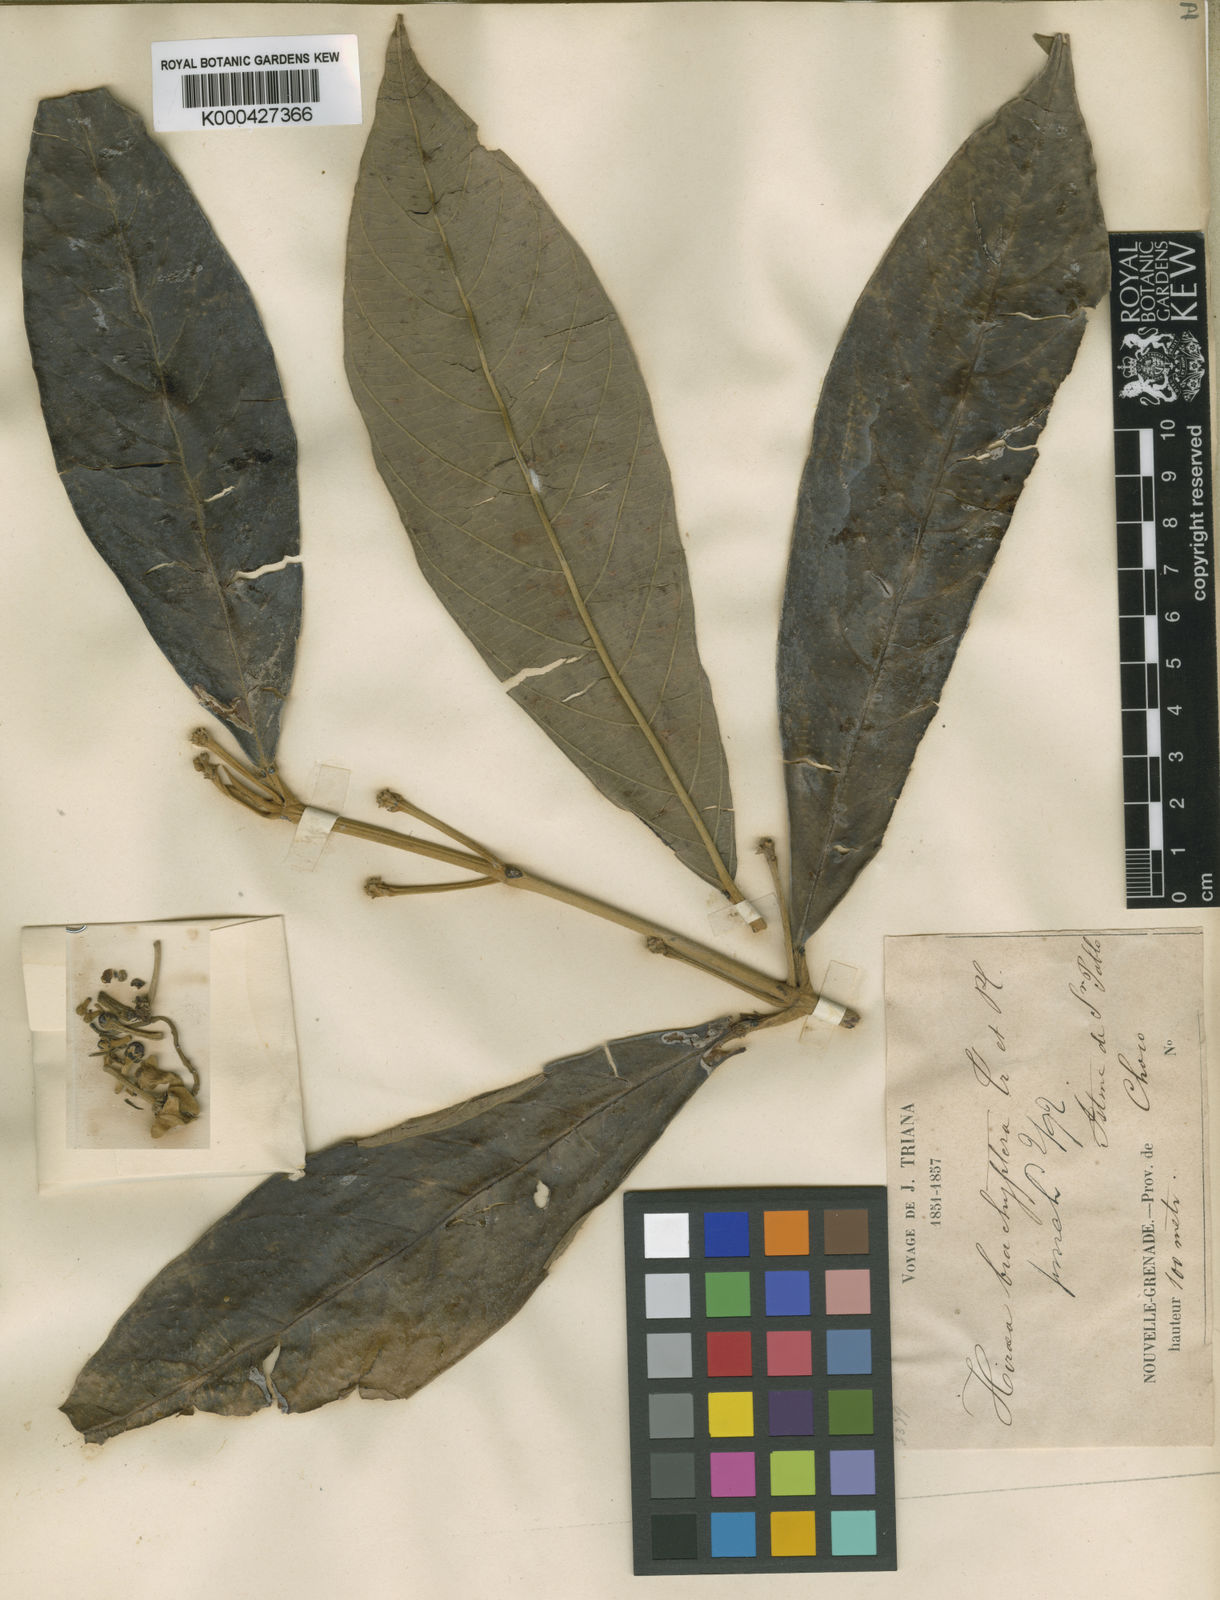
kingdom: Plantae
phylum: Tracheophyta
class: Magnoliopsida
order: Malpighiales
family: Malpighiaceae
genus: Hiraea
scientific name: Hiraea brachyptera
